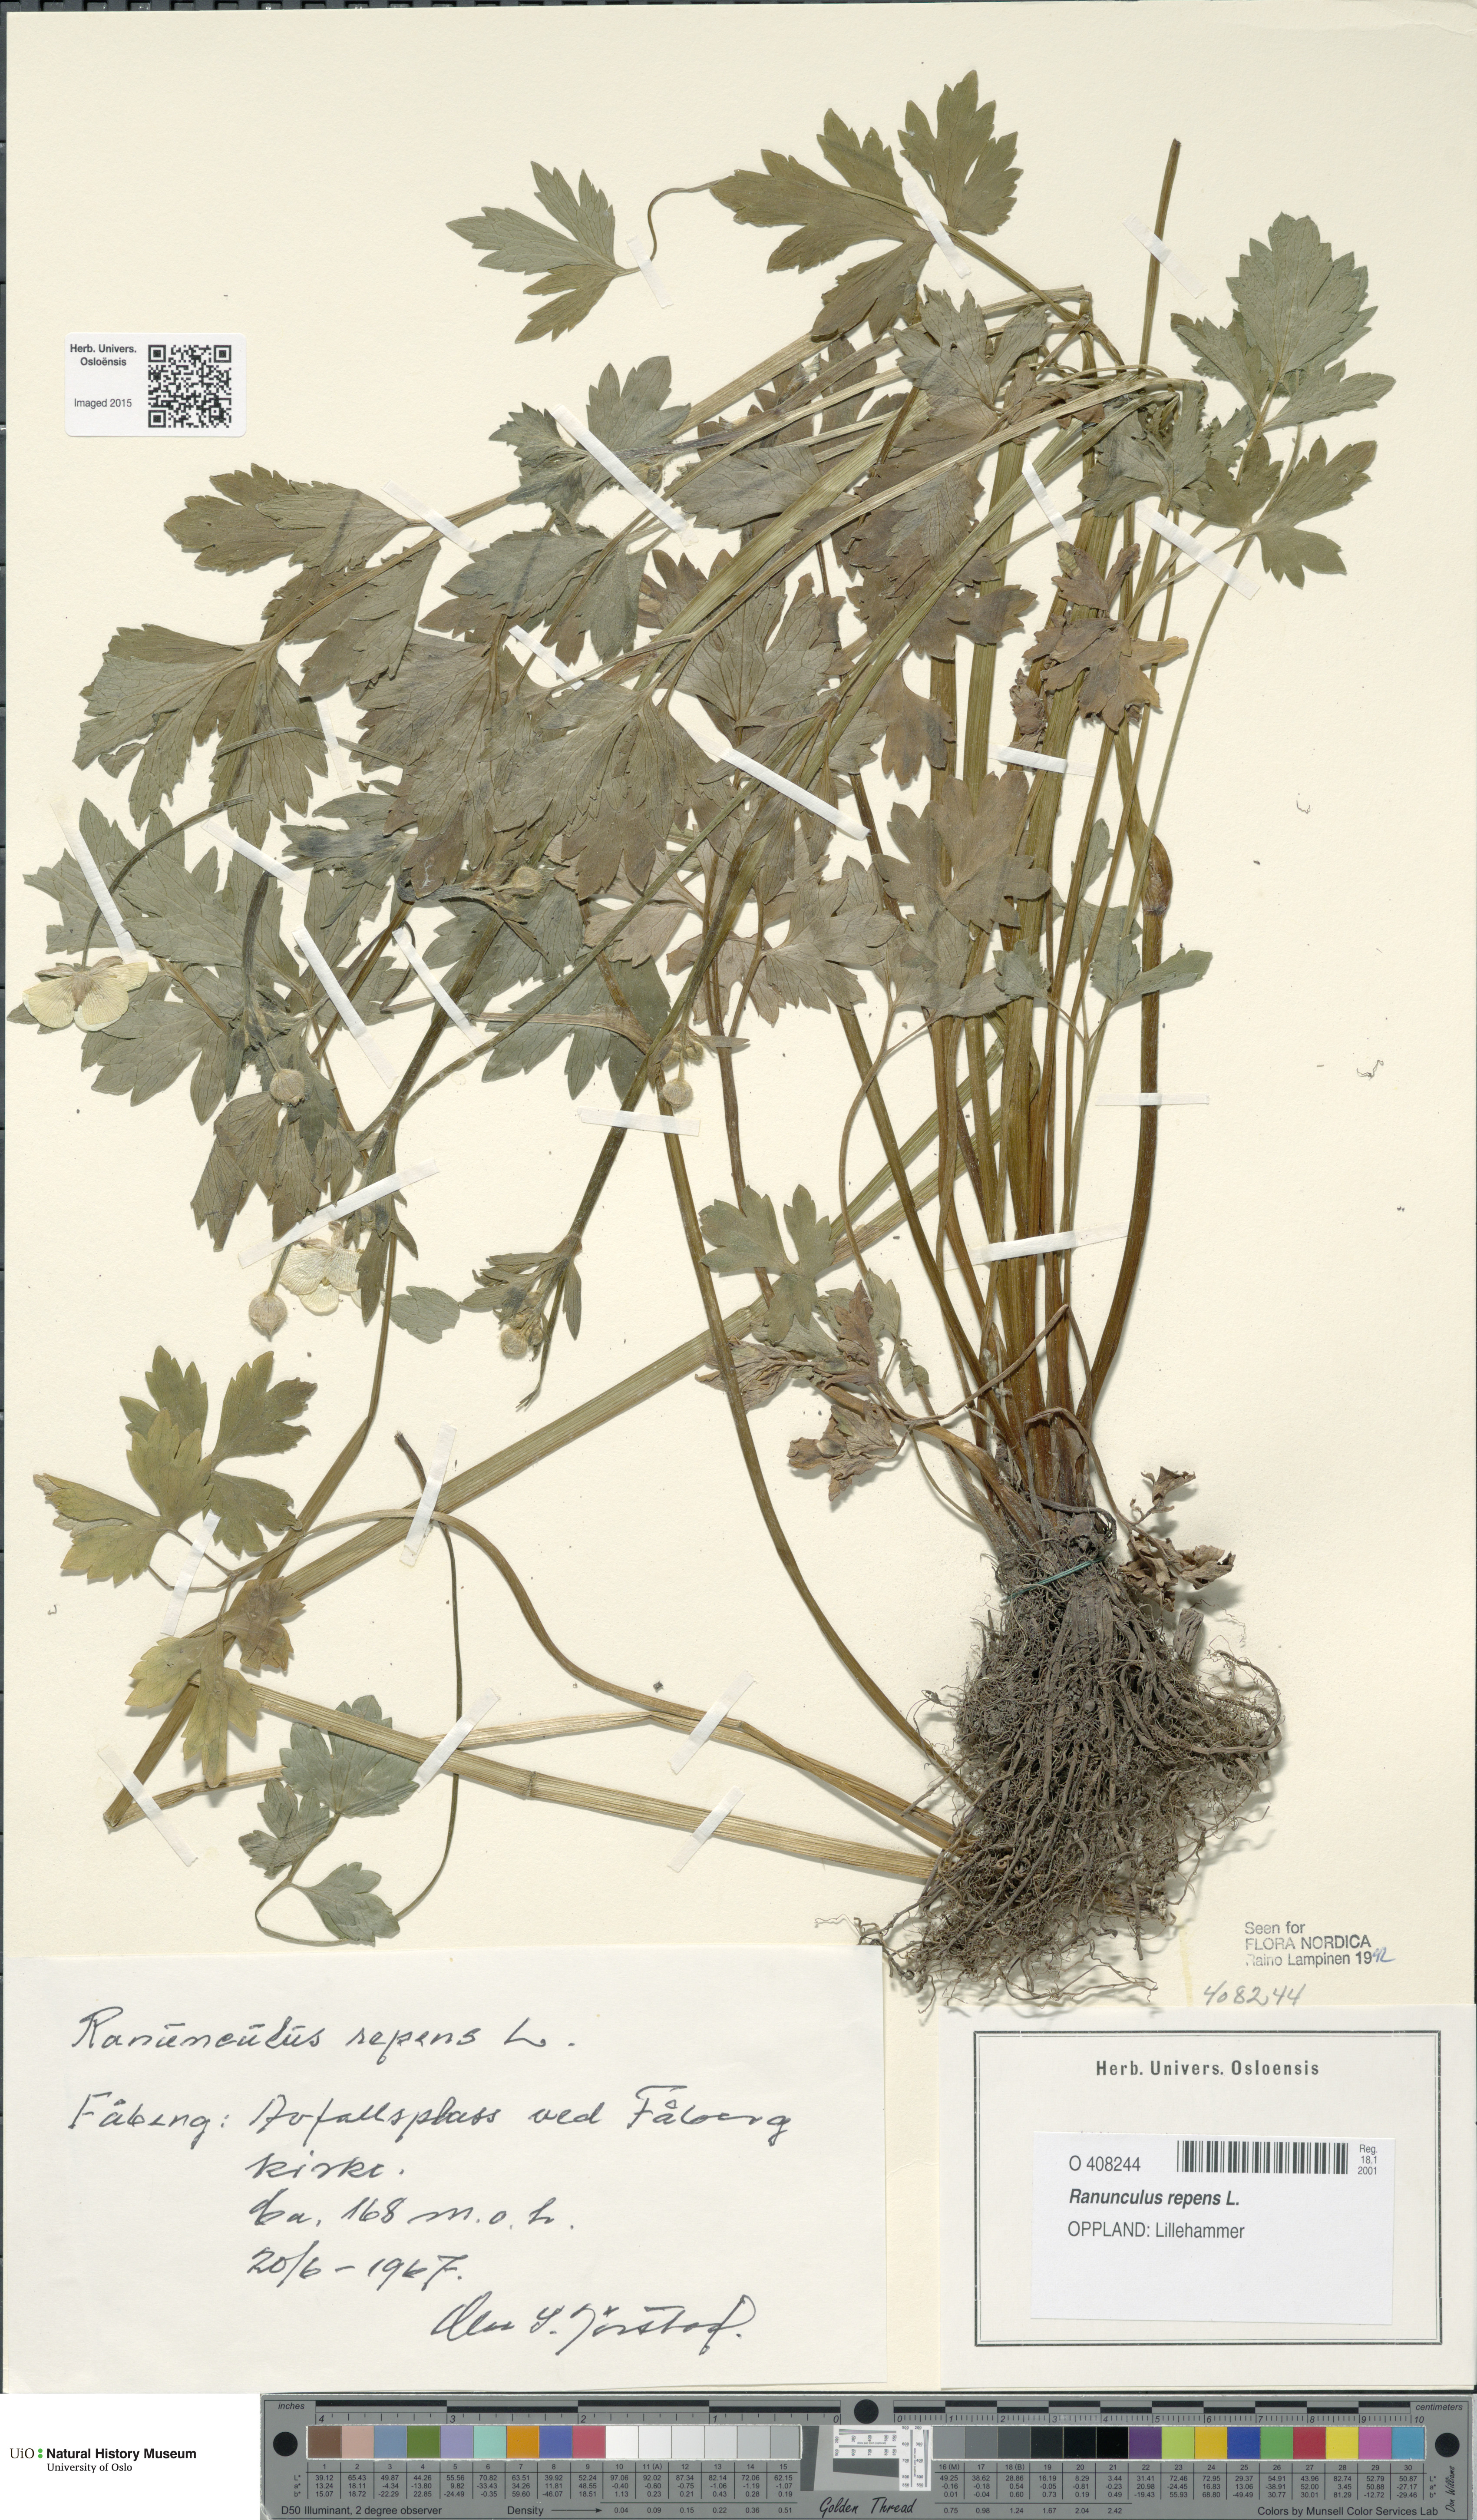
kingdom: Plantae
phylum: Tracheophyta
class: Magnoliopsida
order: Ranunculales
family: Ranunculaceae
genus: Ranunculus
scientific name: Ranunculus repens
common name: Creeping buttercup
